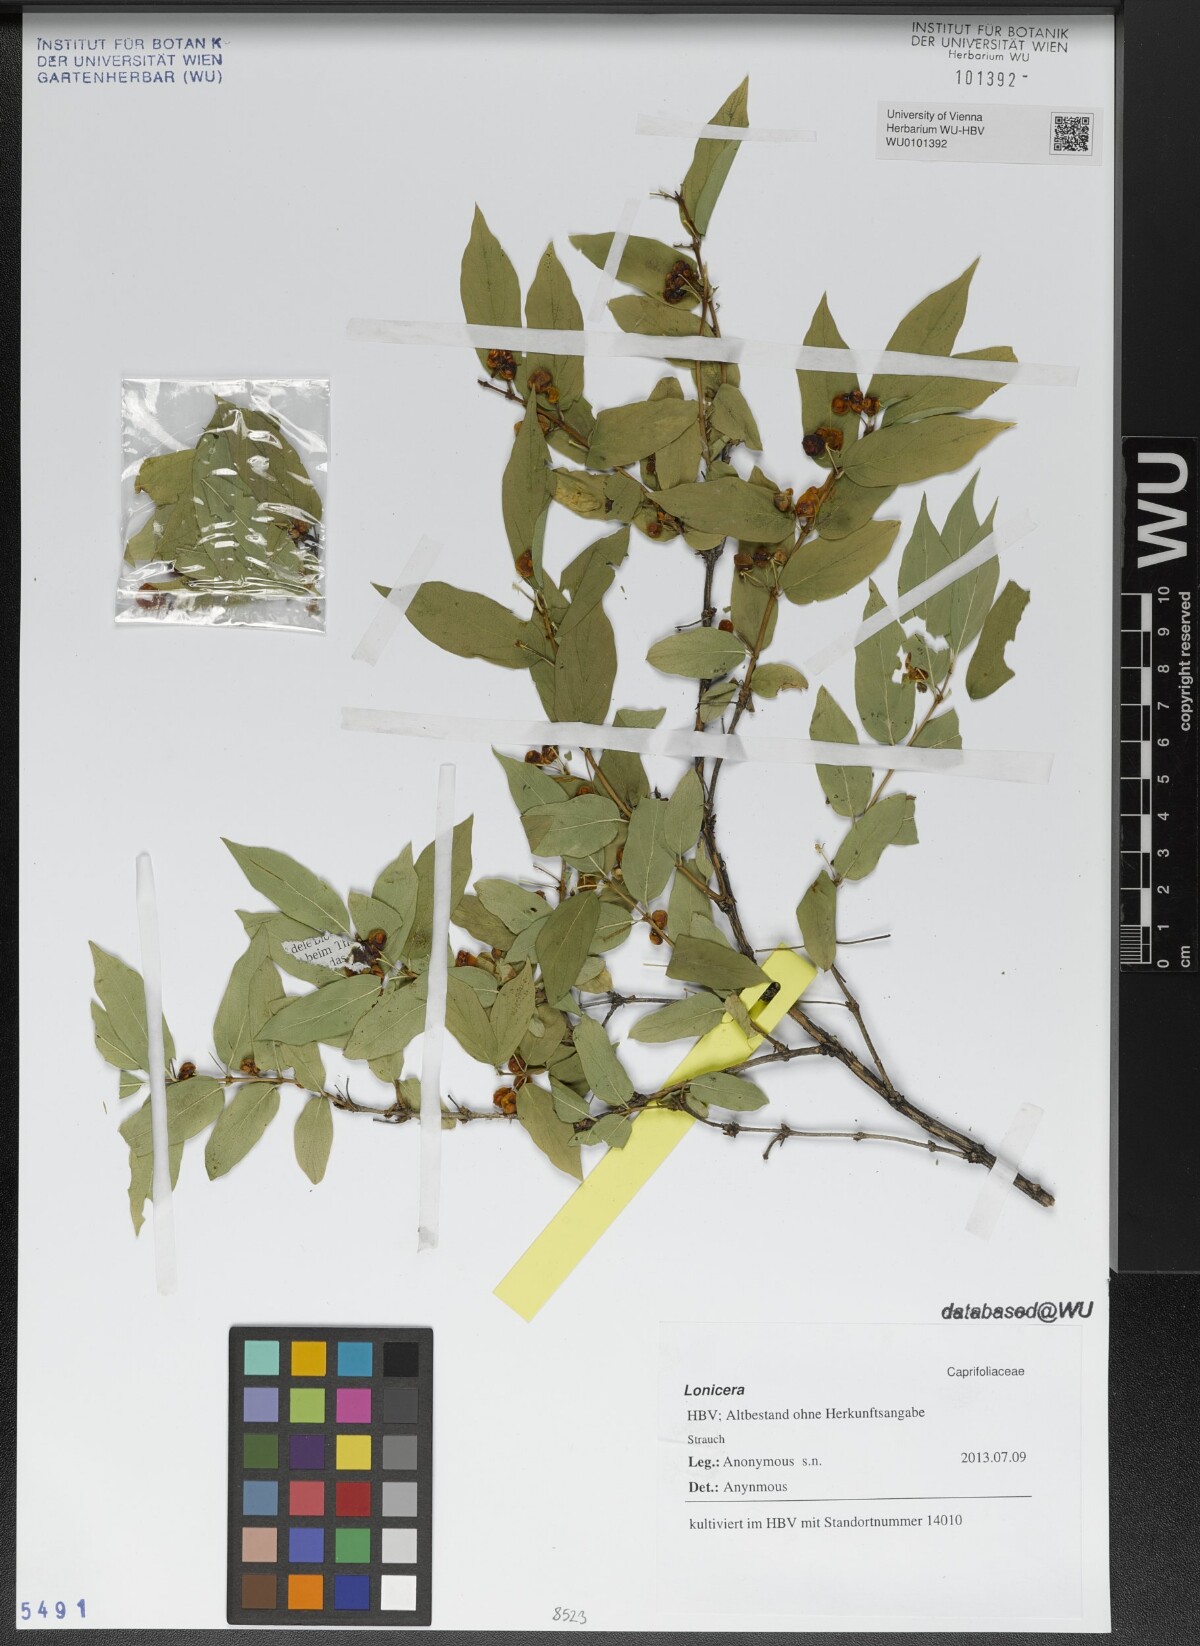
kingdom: Plantae
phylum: Tracheophyta
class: Magnoliopsida
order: Dipsacales
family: Caprifoliaceae
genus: Lonicera
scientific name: Lonicera
